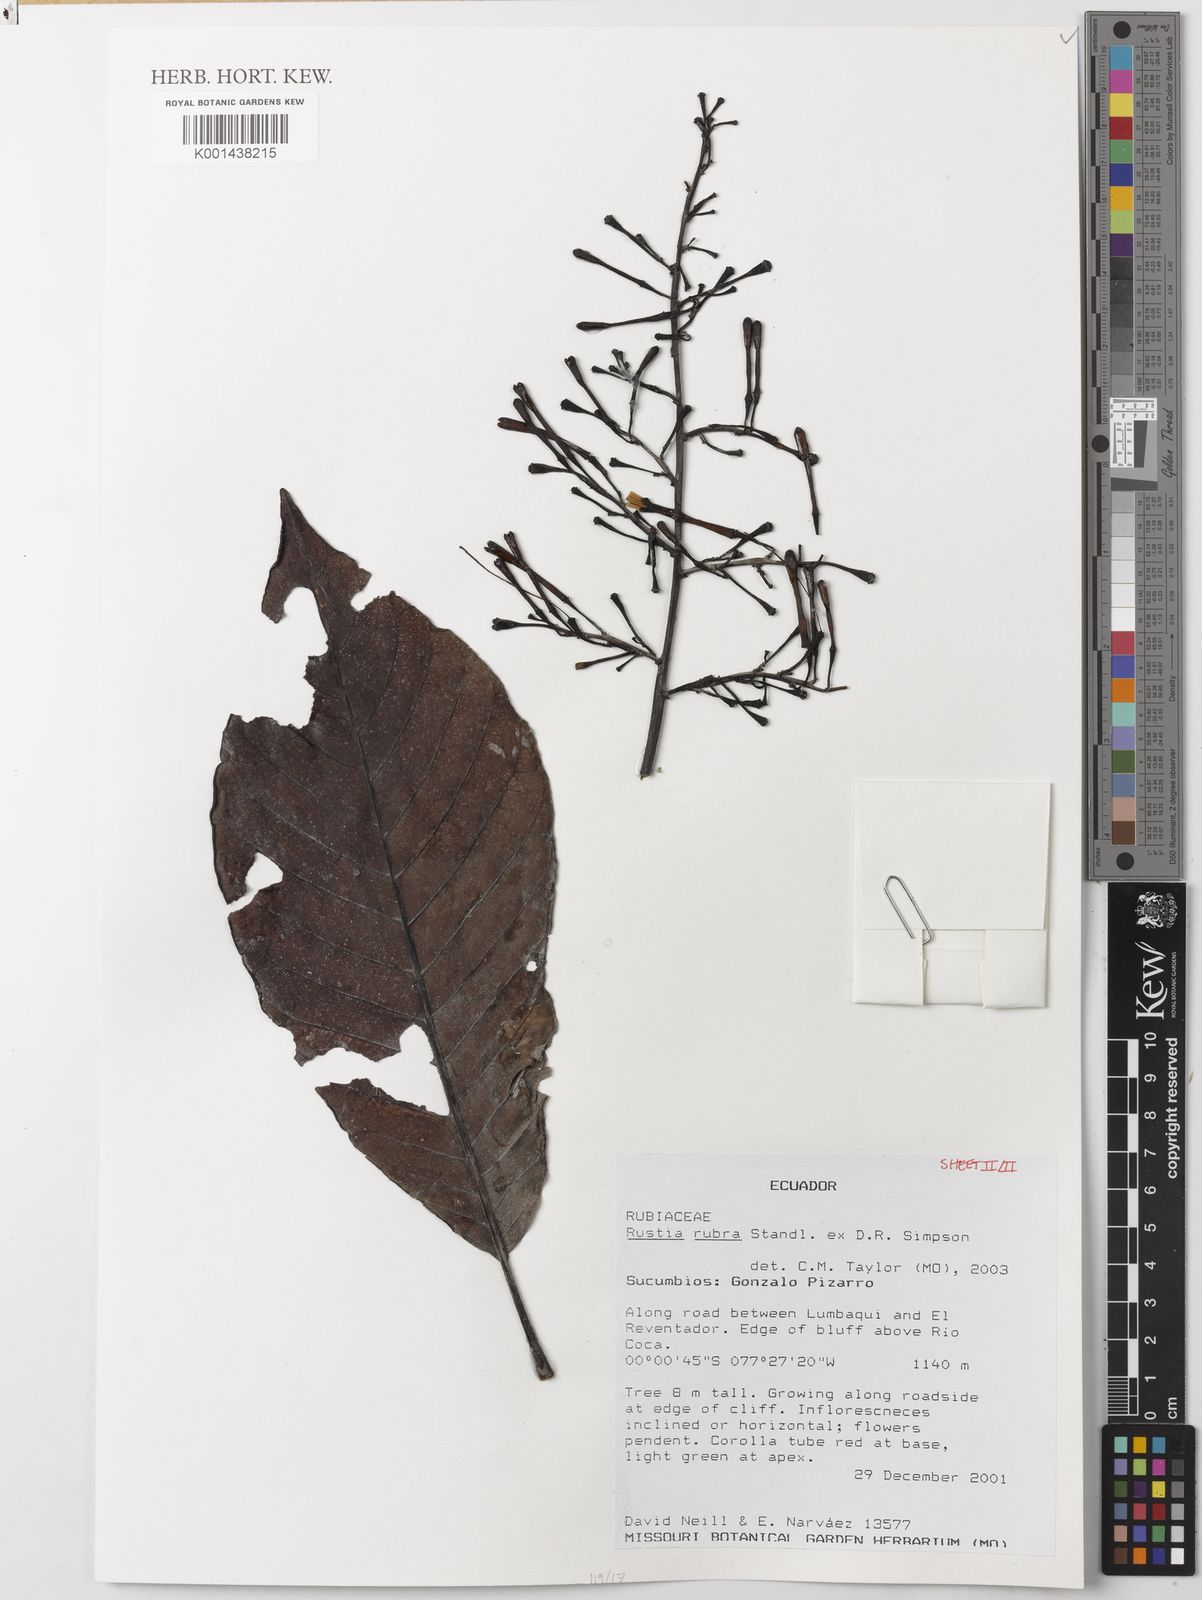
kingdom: Plantae
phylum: Tracheophyta
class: Magnoliopsida
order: Gentianales
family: Rubiaceae
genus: Rustia
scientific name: Rustia rubra
